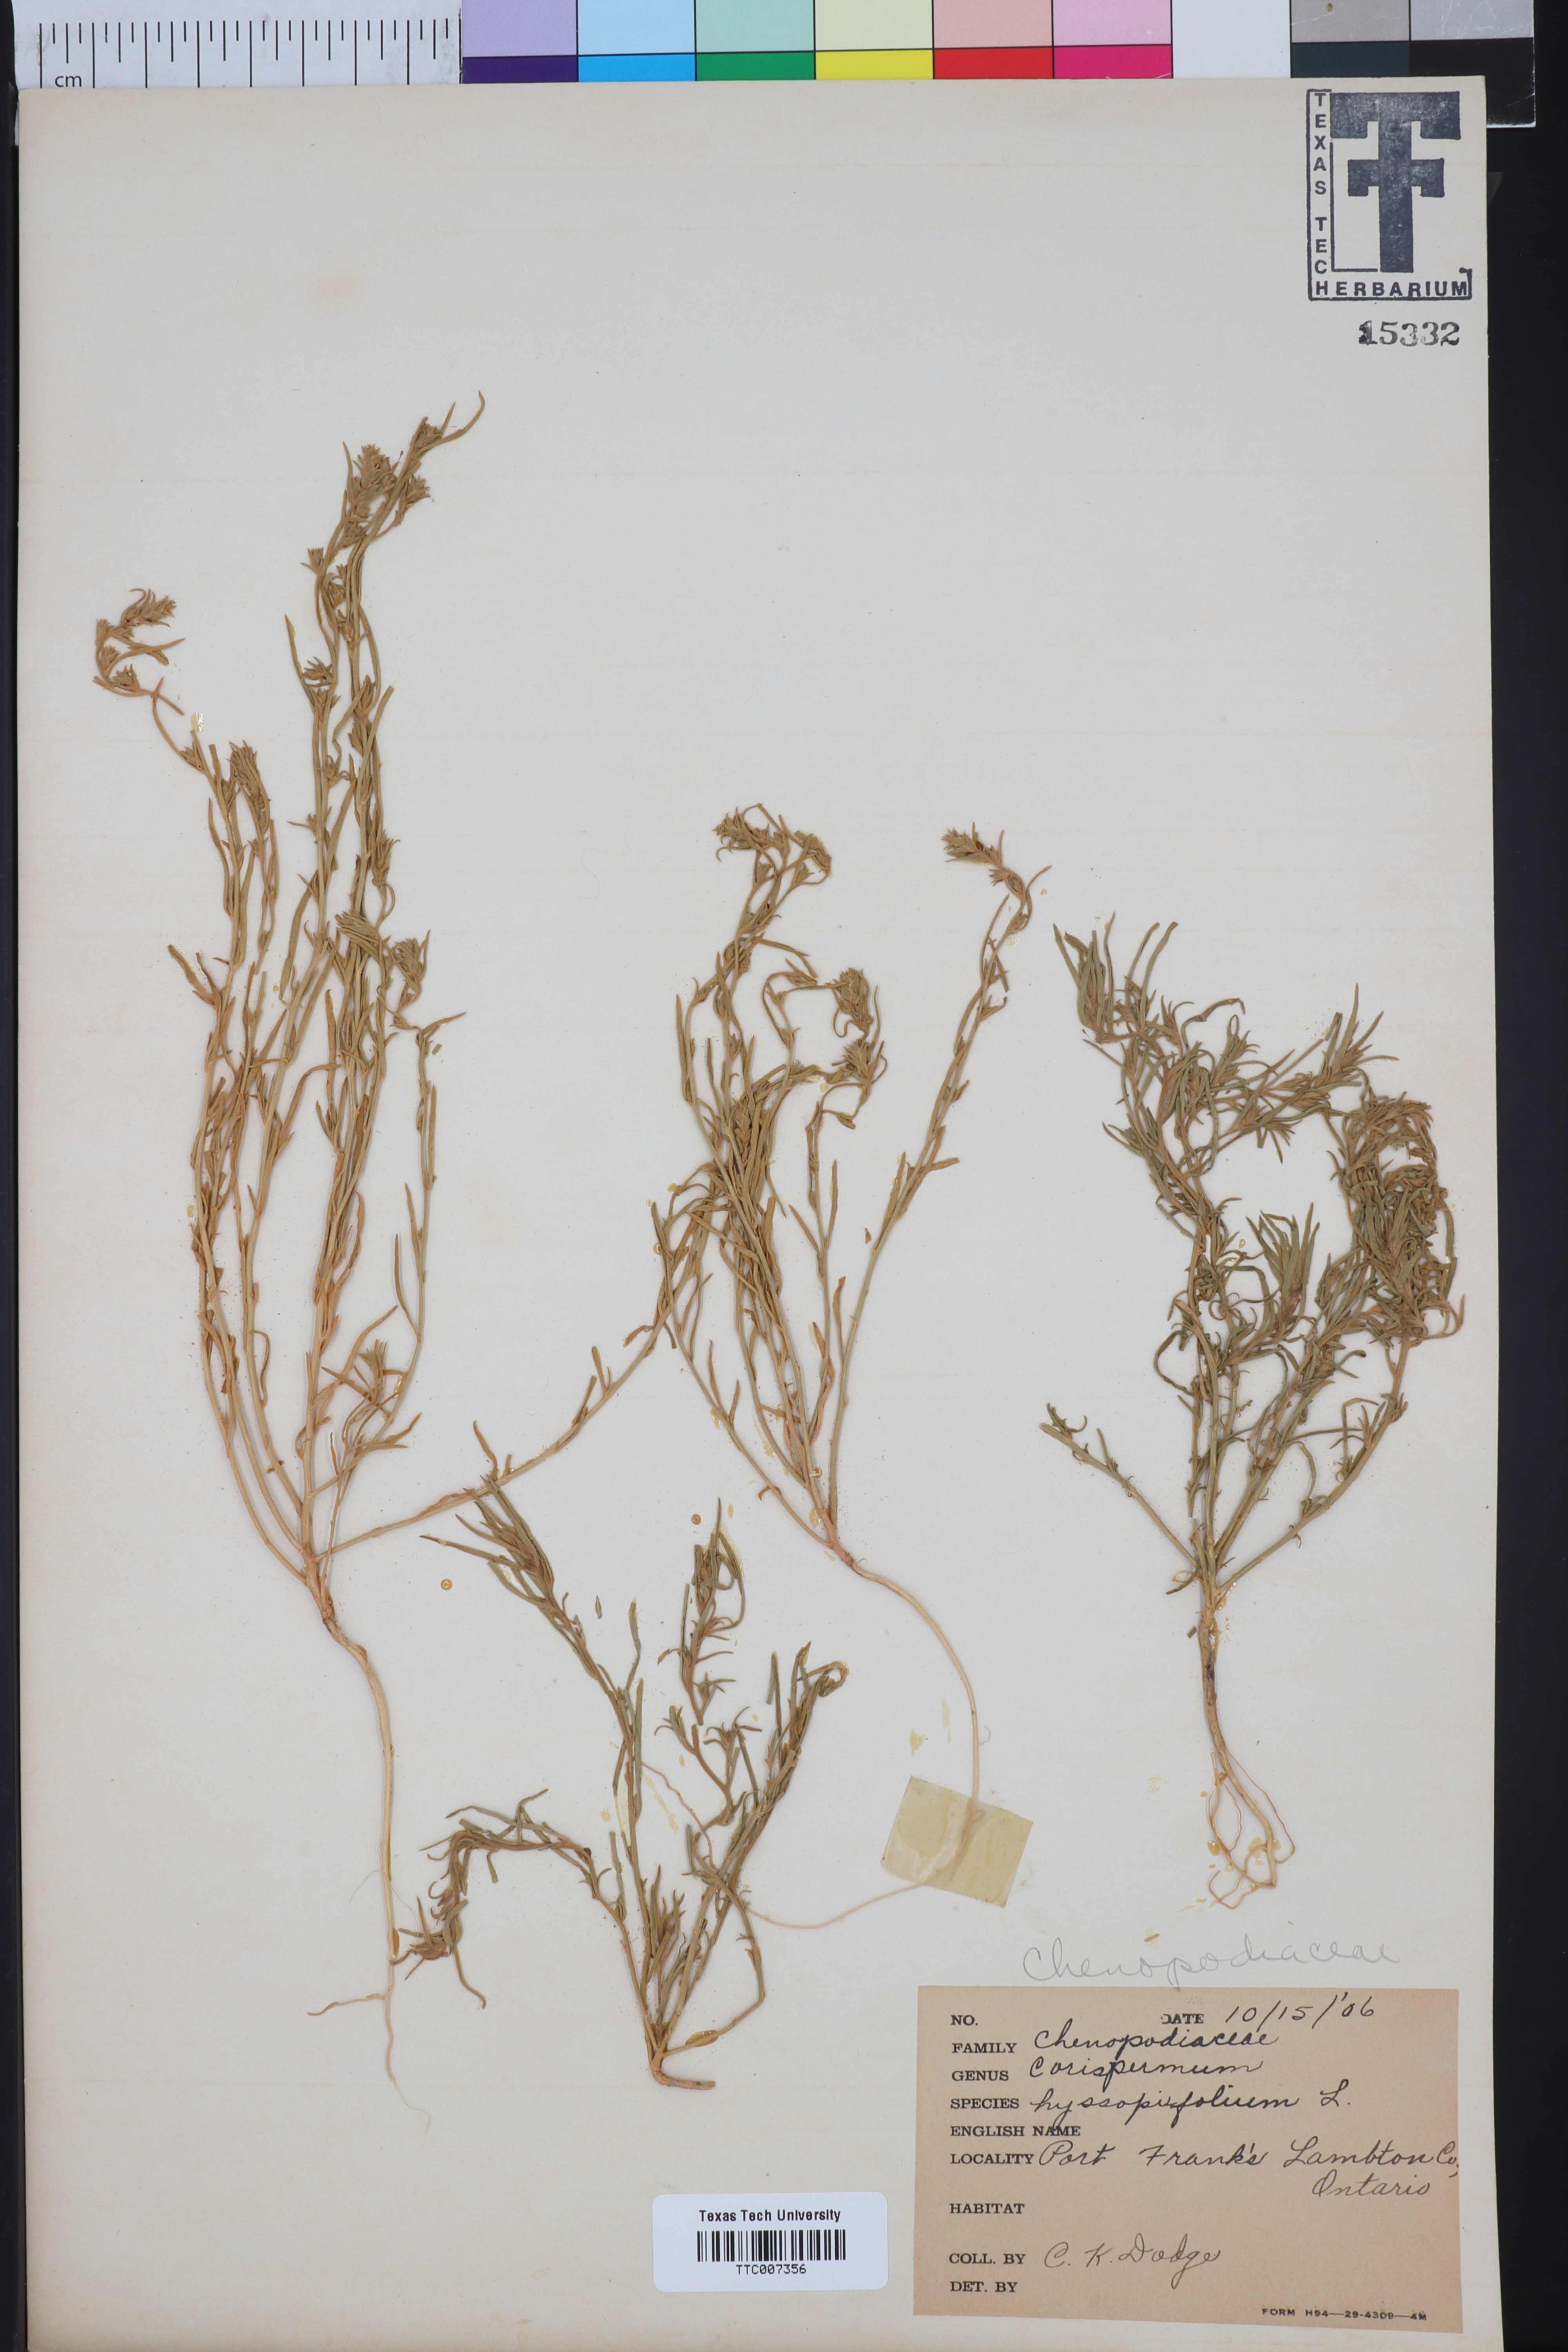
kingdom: Plantae
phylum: Tracheophyta
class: Magnoliopsida
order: Caryophyllales
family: Amaranthaceae
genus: Corispermum
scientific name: Corispermum hyssopifolium
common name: Bugseed
